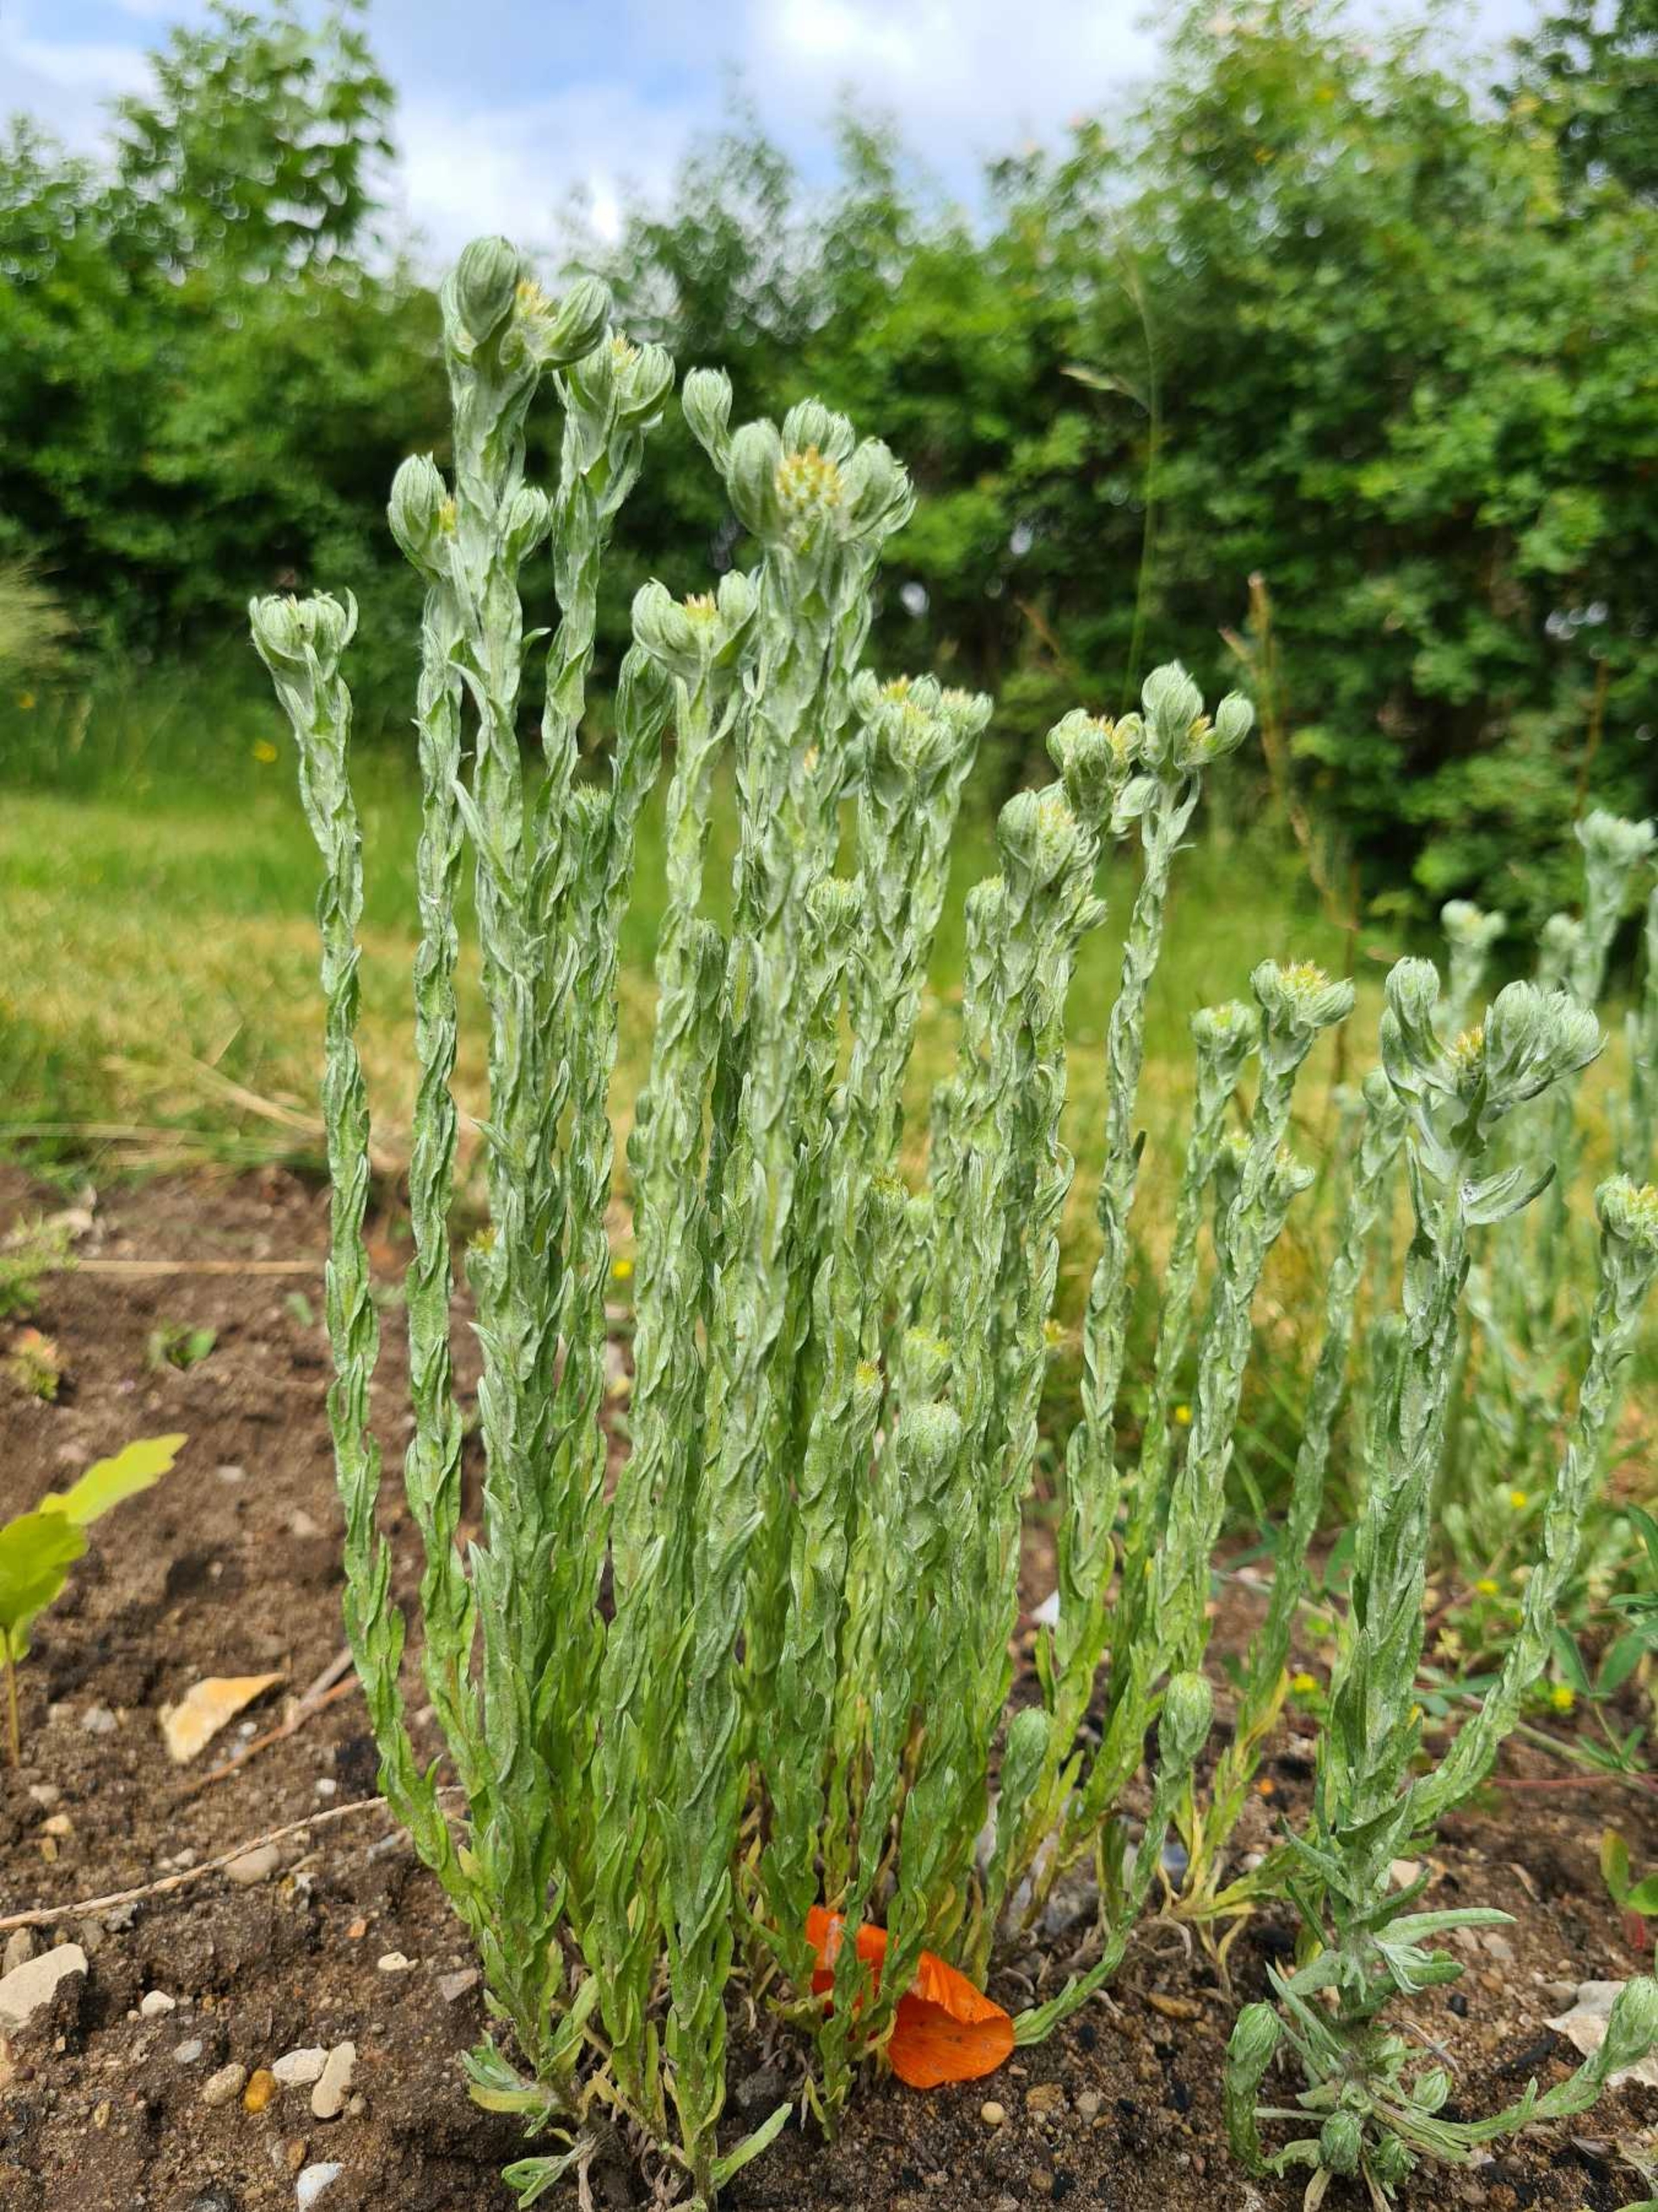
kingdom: Plantae
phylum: Tracheophyta
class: Magnoliopsida
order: Asterales
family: Asteraceae
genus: Filago
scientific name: Filago germanica
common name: Kugle-museurt
